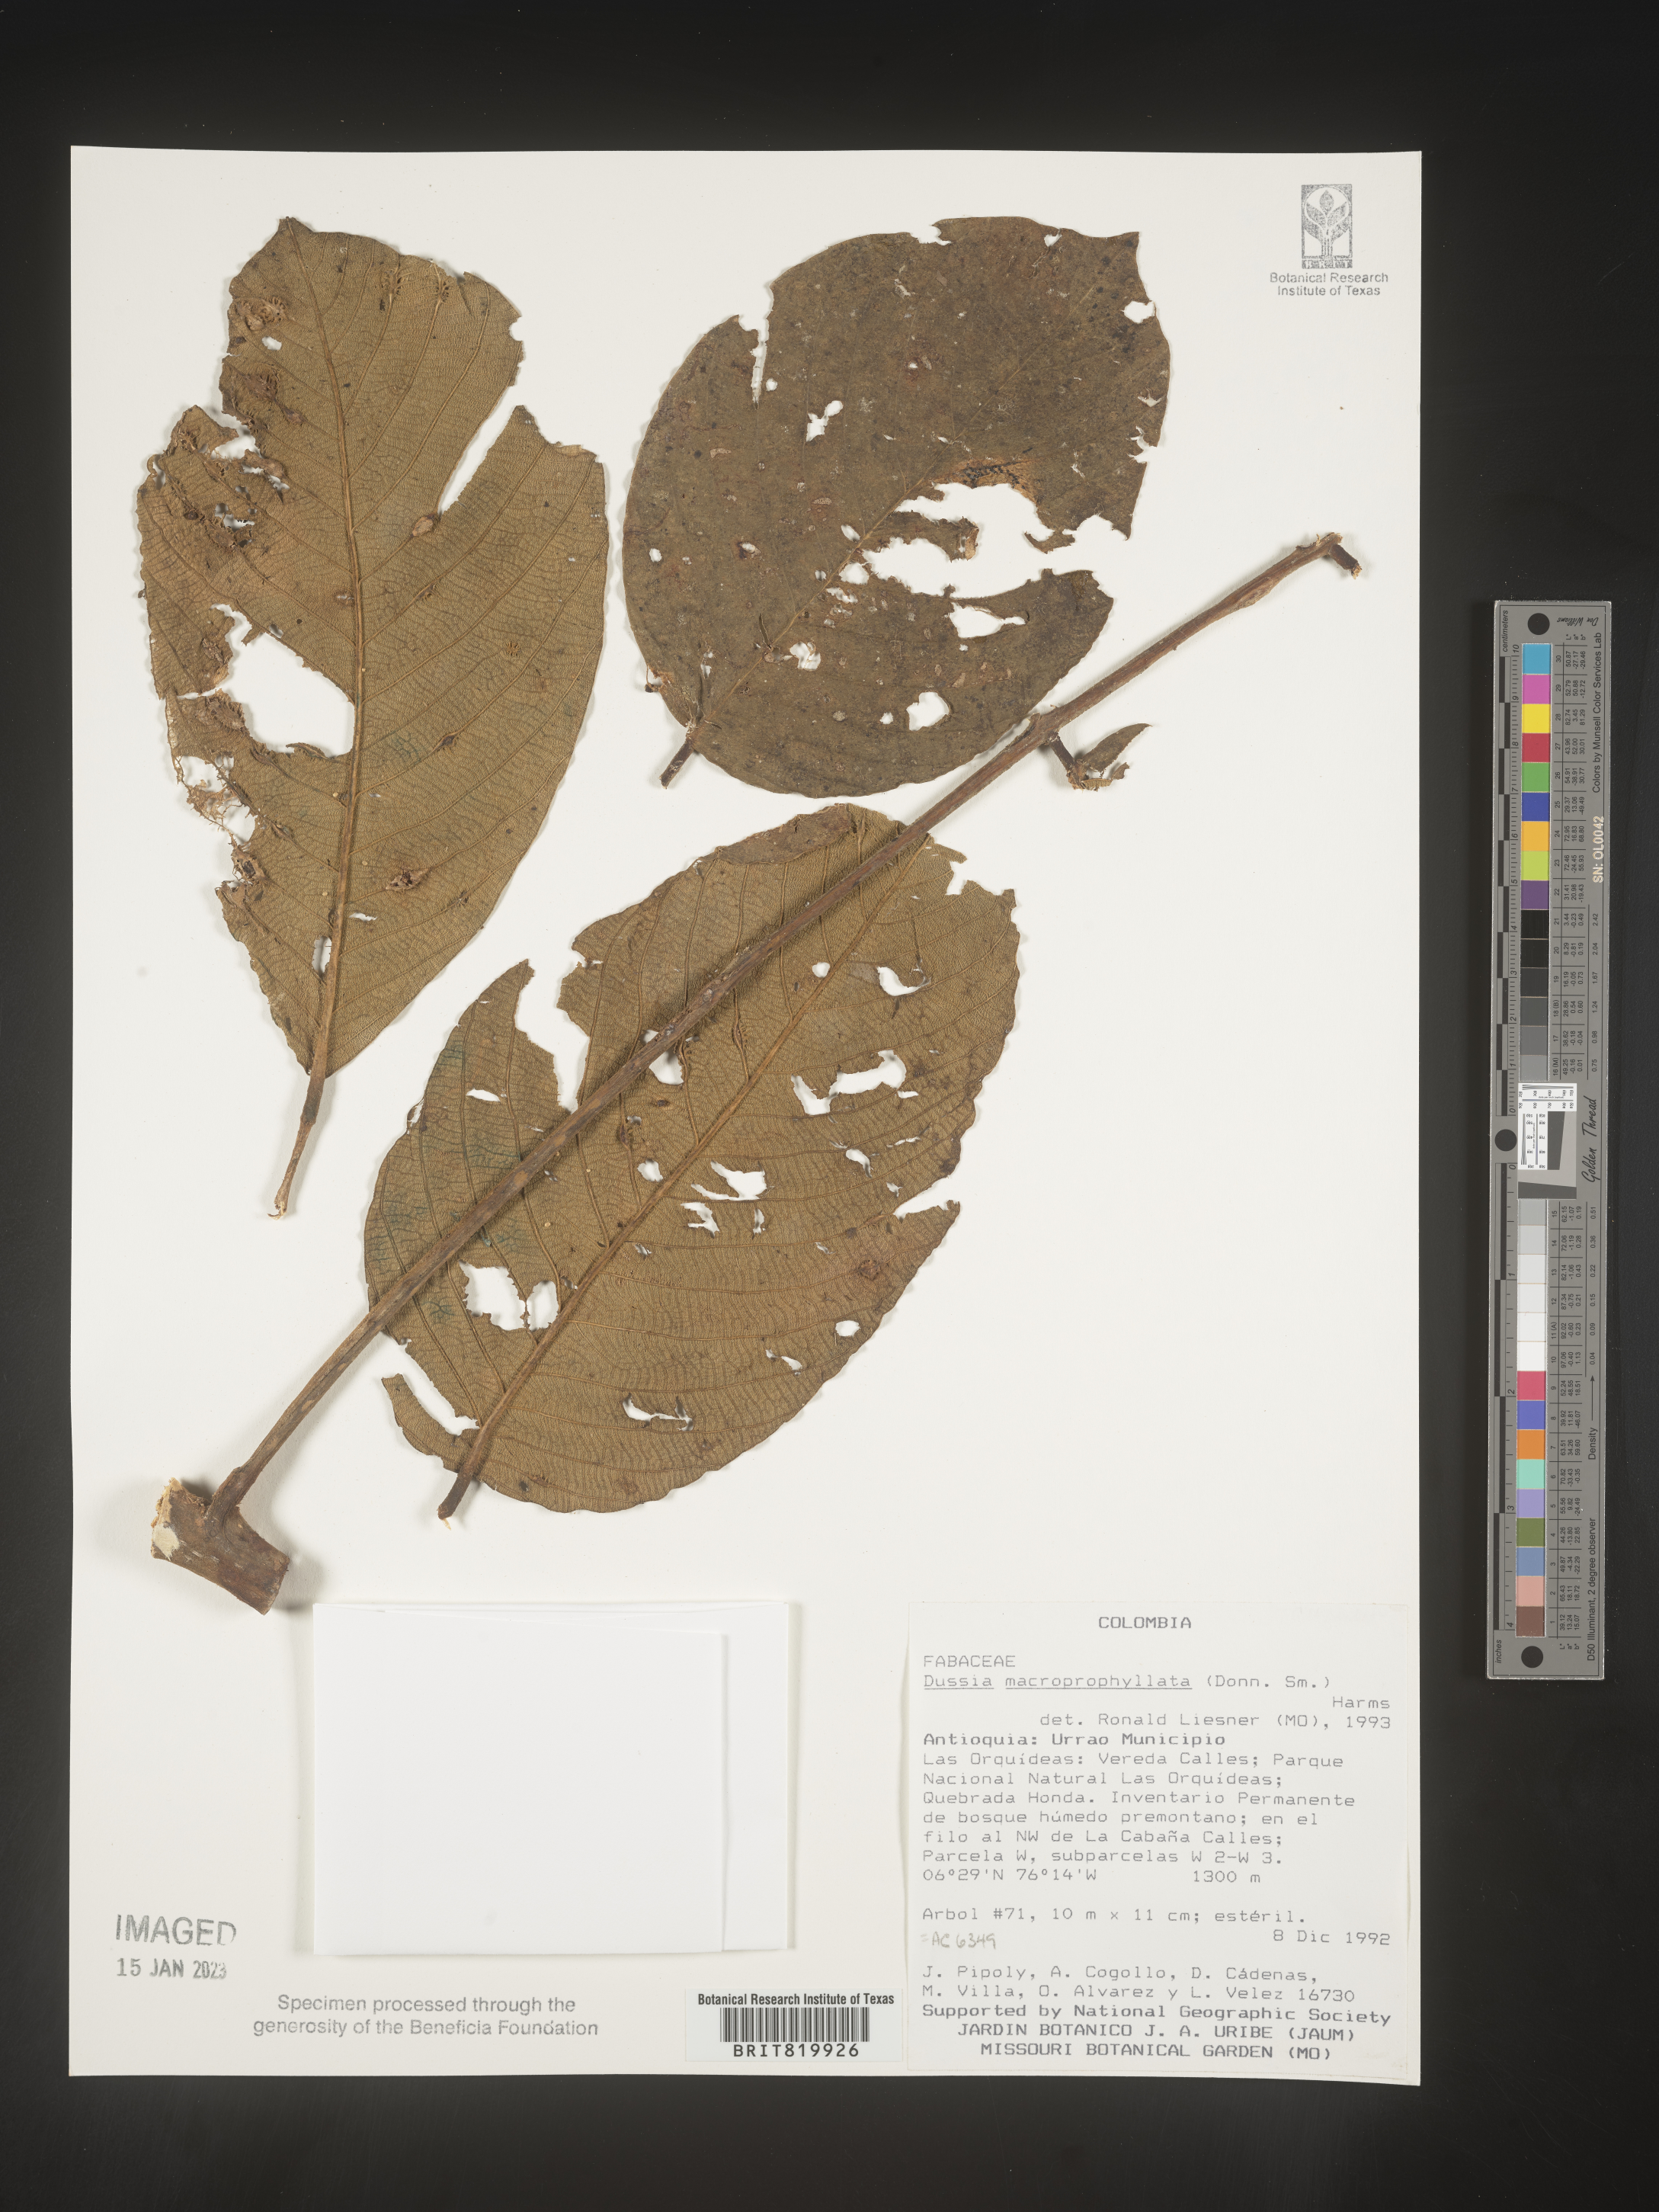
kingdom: Plantae
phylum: Tracheophyta
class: Magnoliopsida
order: Fabales
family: Fabaceae
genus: Dussia
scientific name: Dussia
